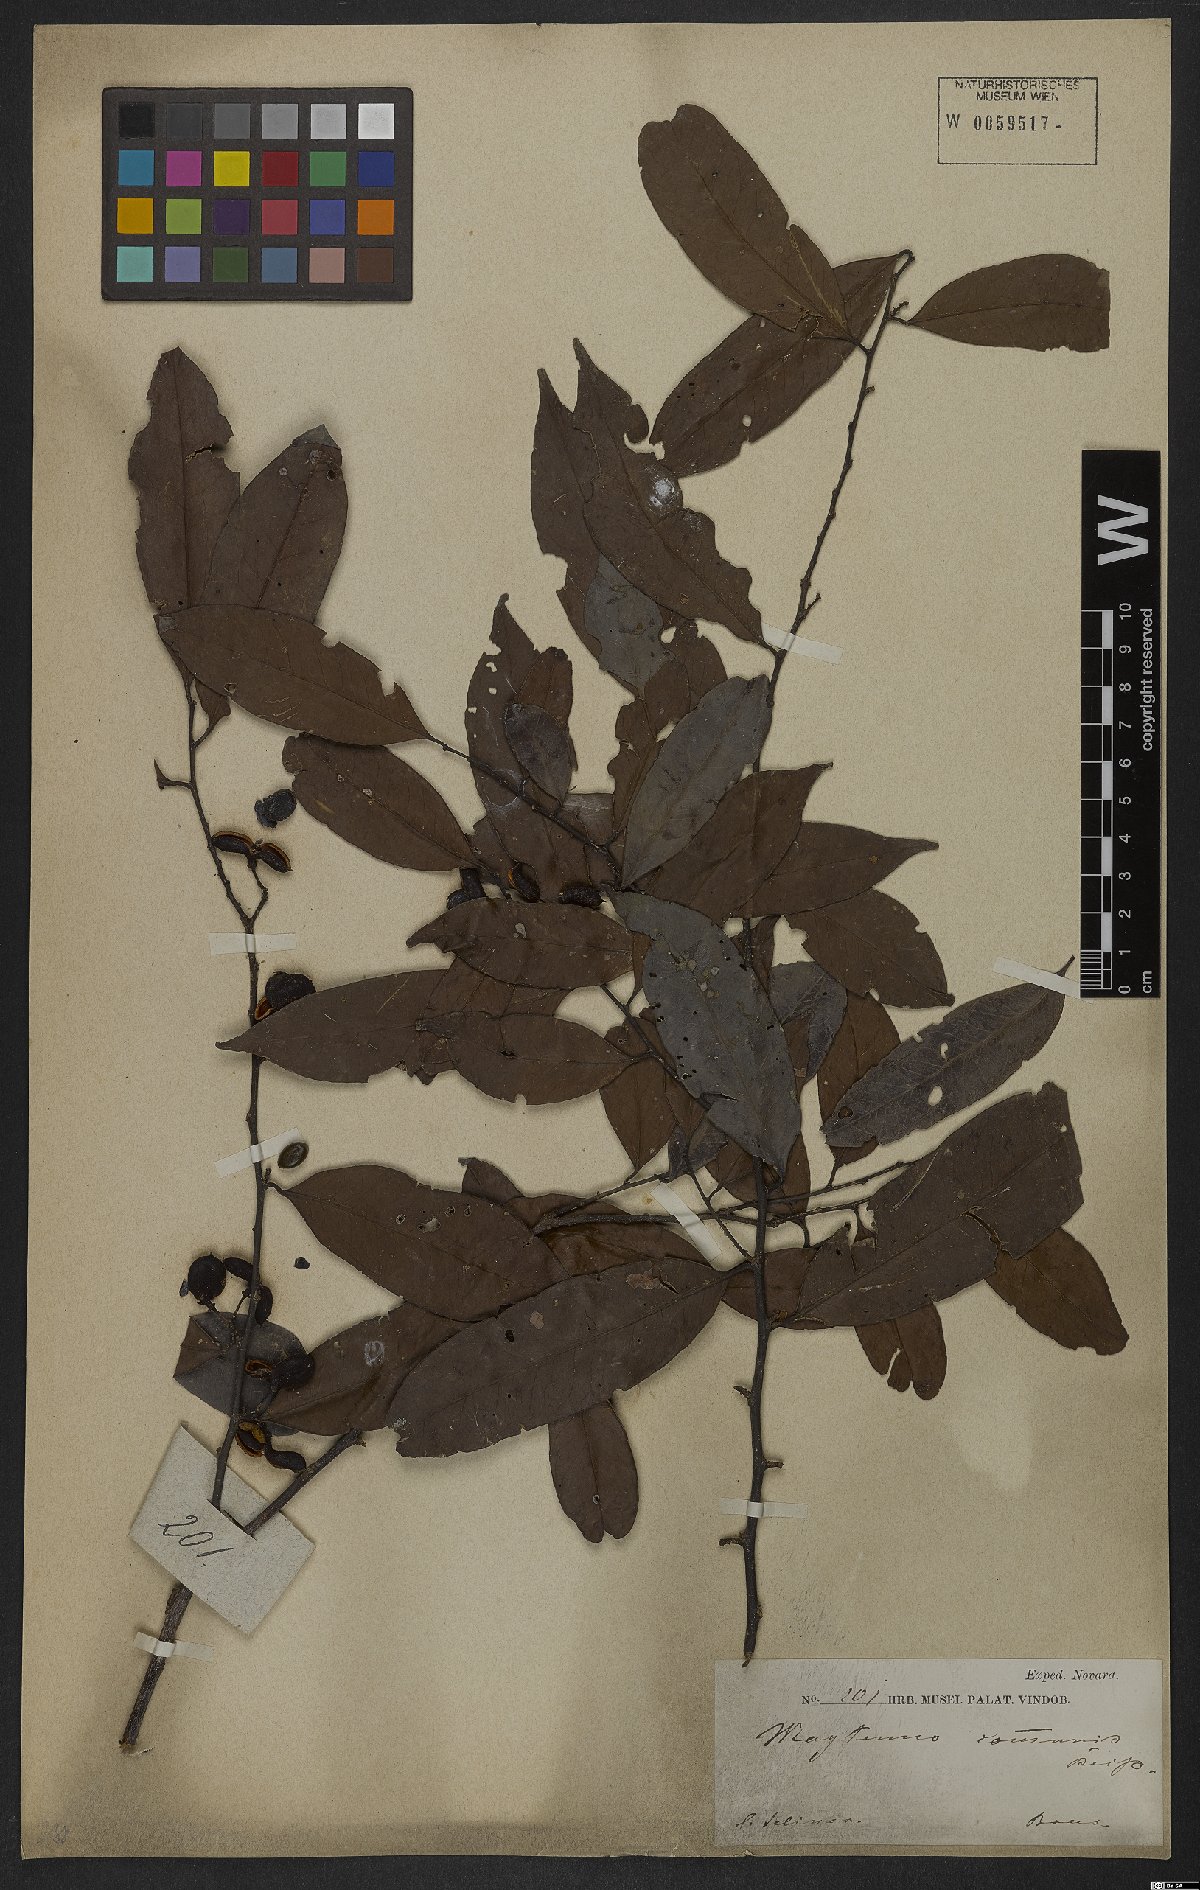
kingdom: Plantae
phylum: Tracheophyta
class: Magnoliopsida
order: Celastrales
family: Celastraceae
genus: Monteverdia
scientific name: Monteverdia communis
